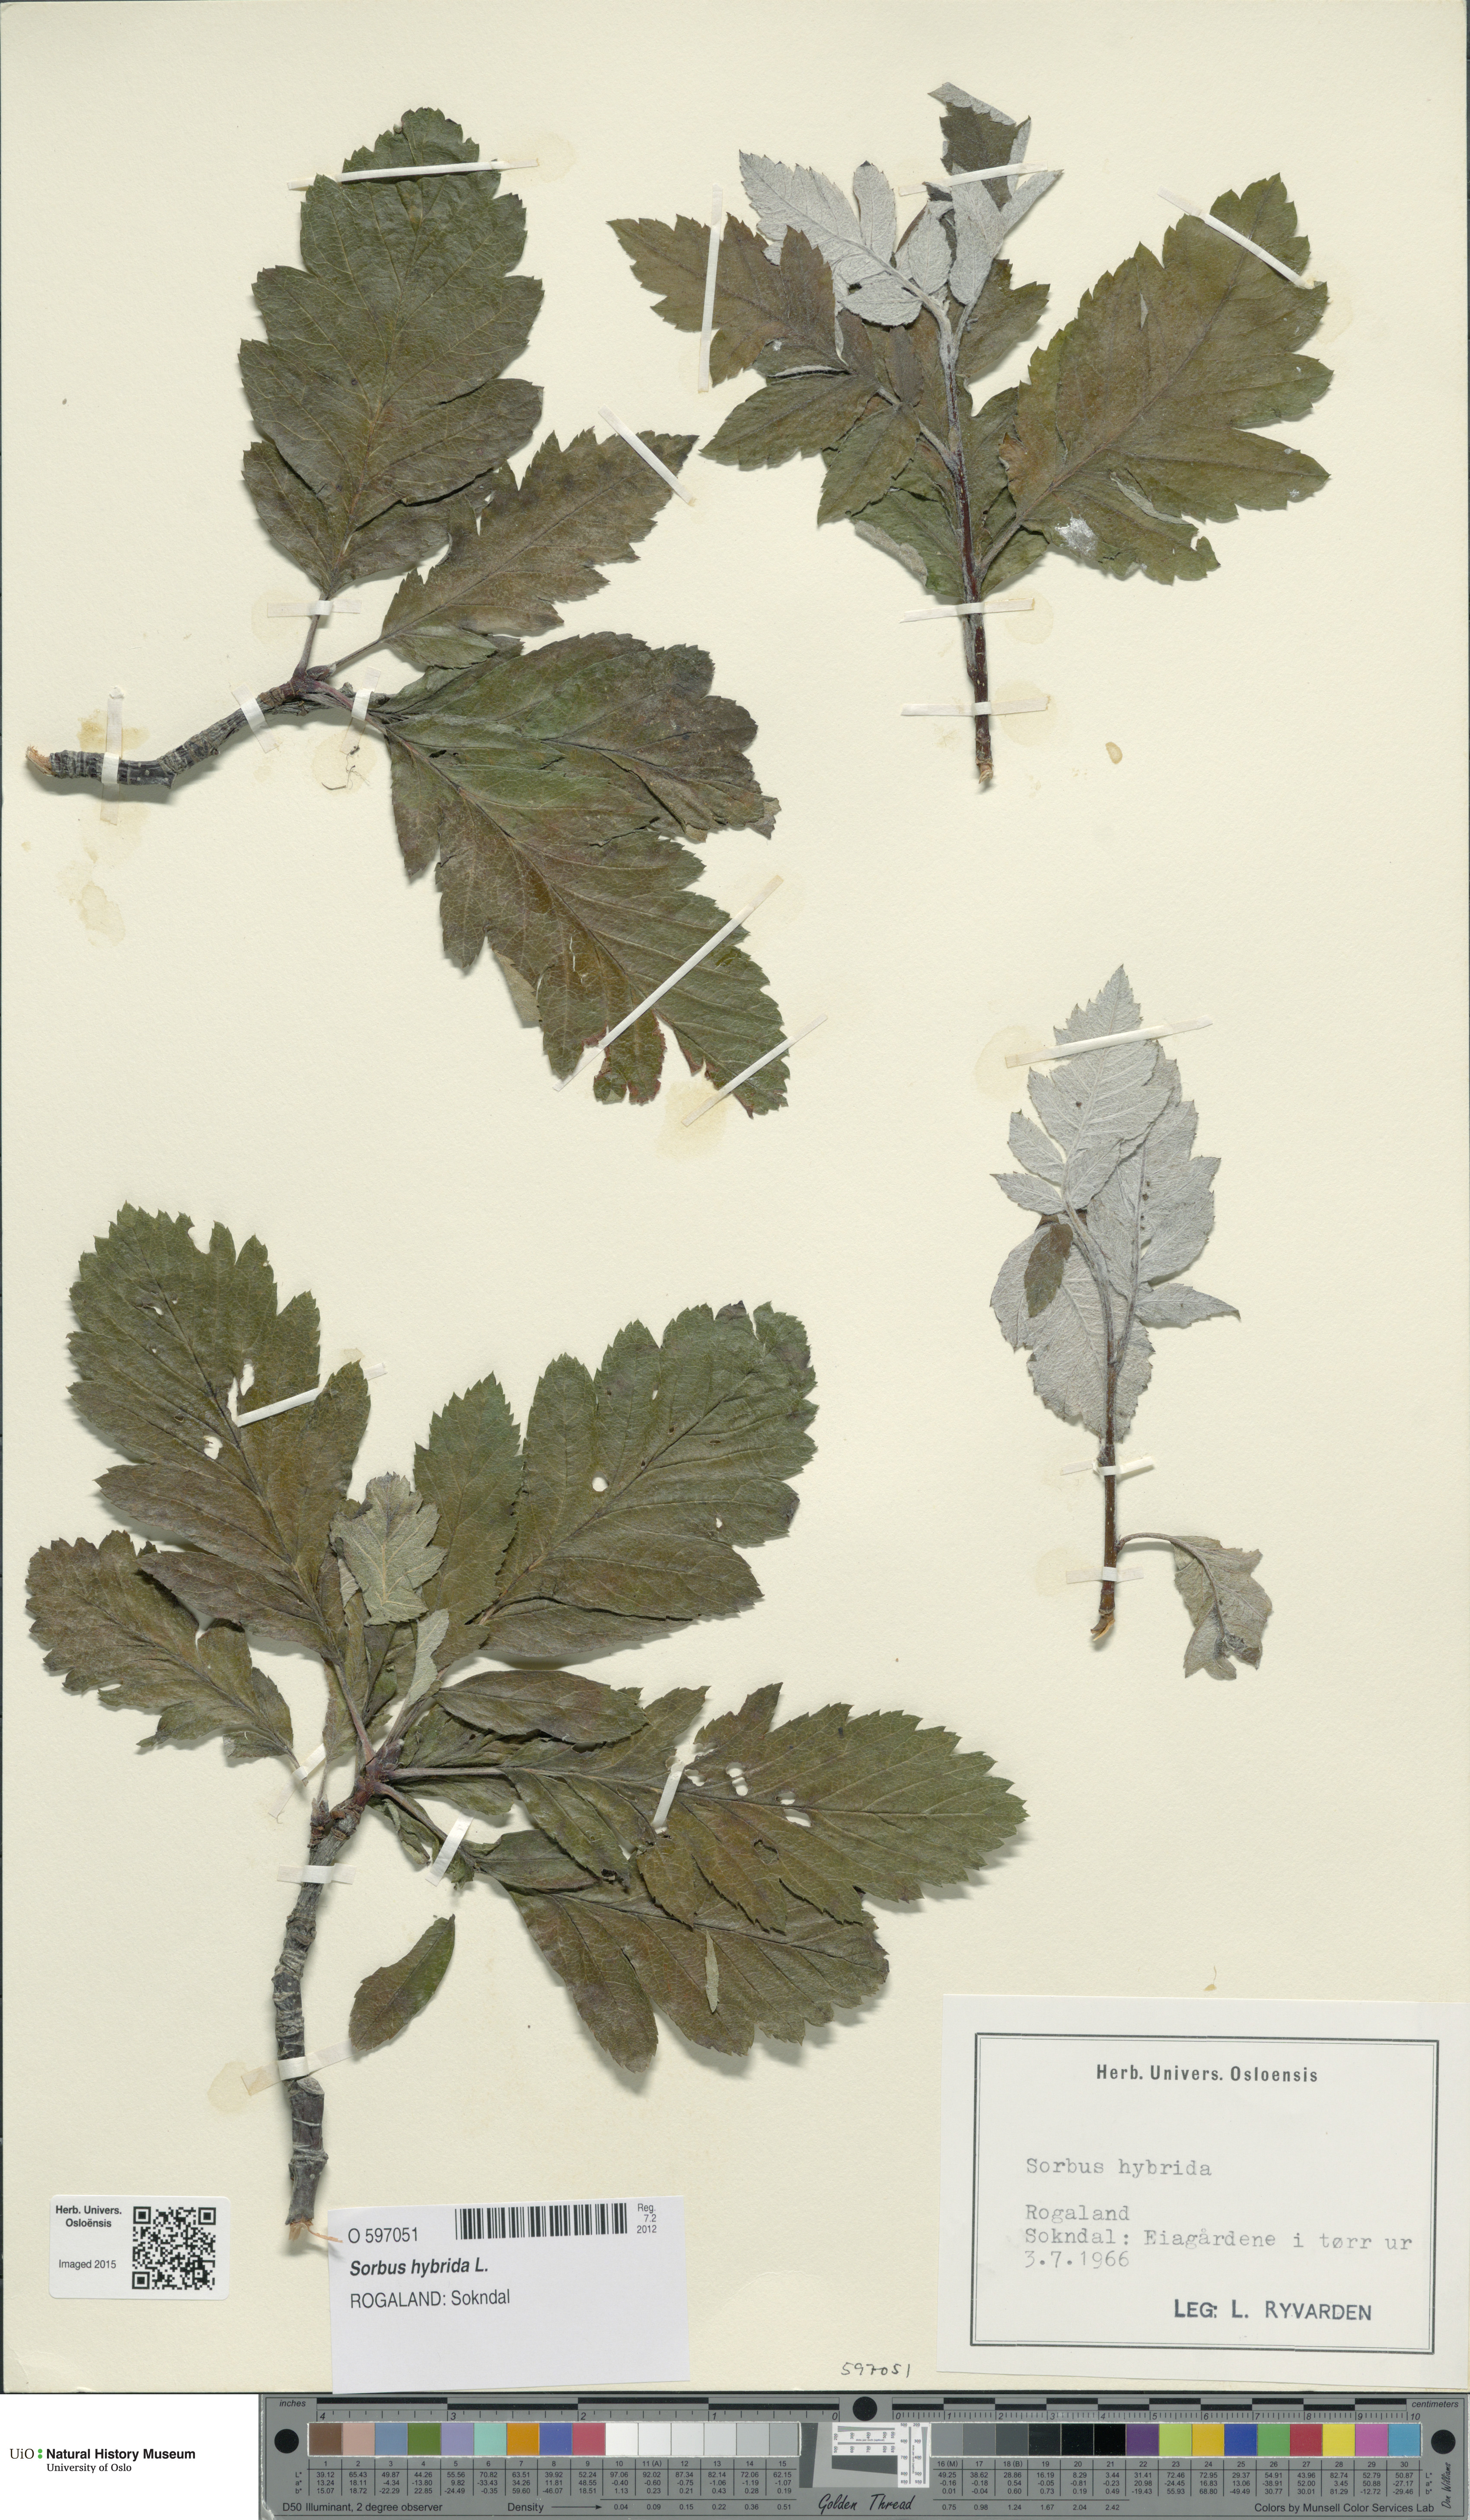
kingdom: Plantae
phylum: Tracheophyta
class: Magnoliopsida
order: Rosales
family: Rosaceae
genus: Hedlundia
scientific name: Hedlundia hybrida
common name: Swedish service-tree
